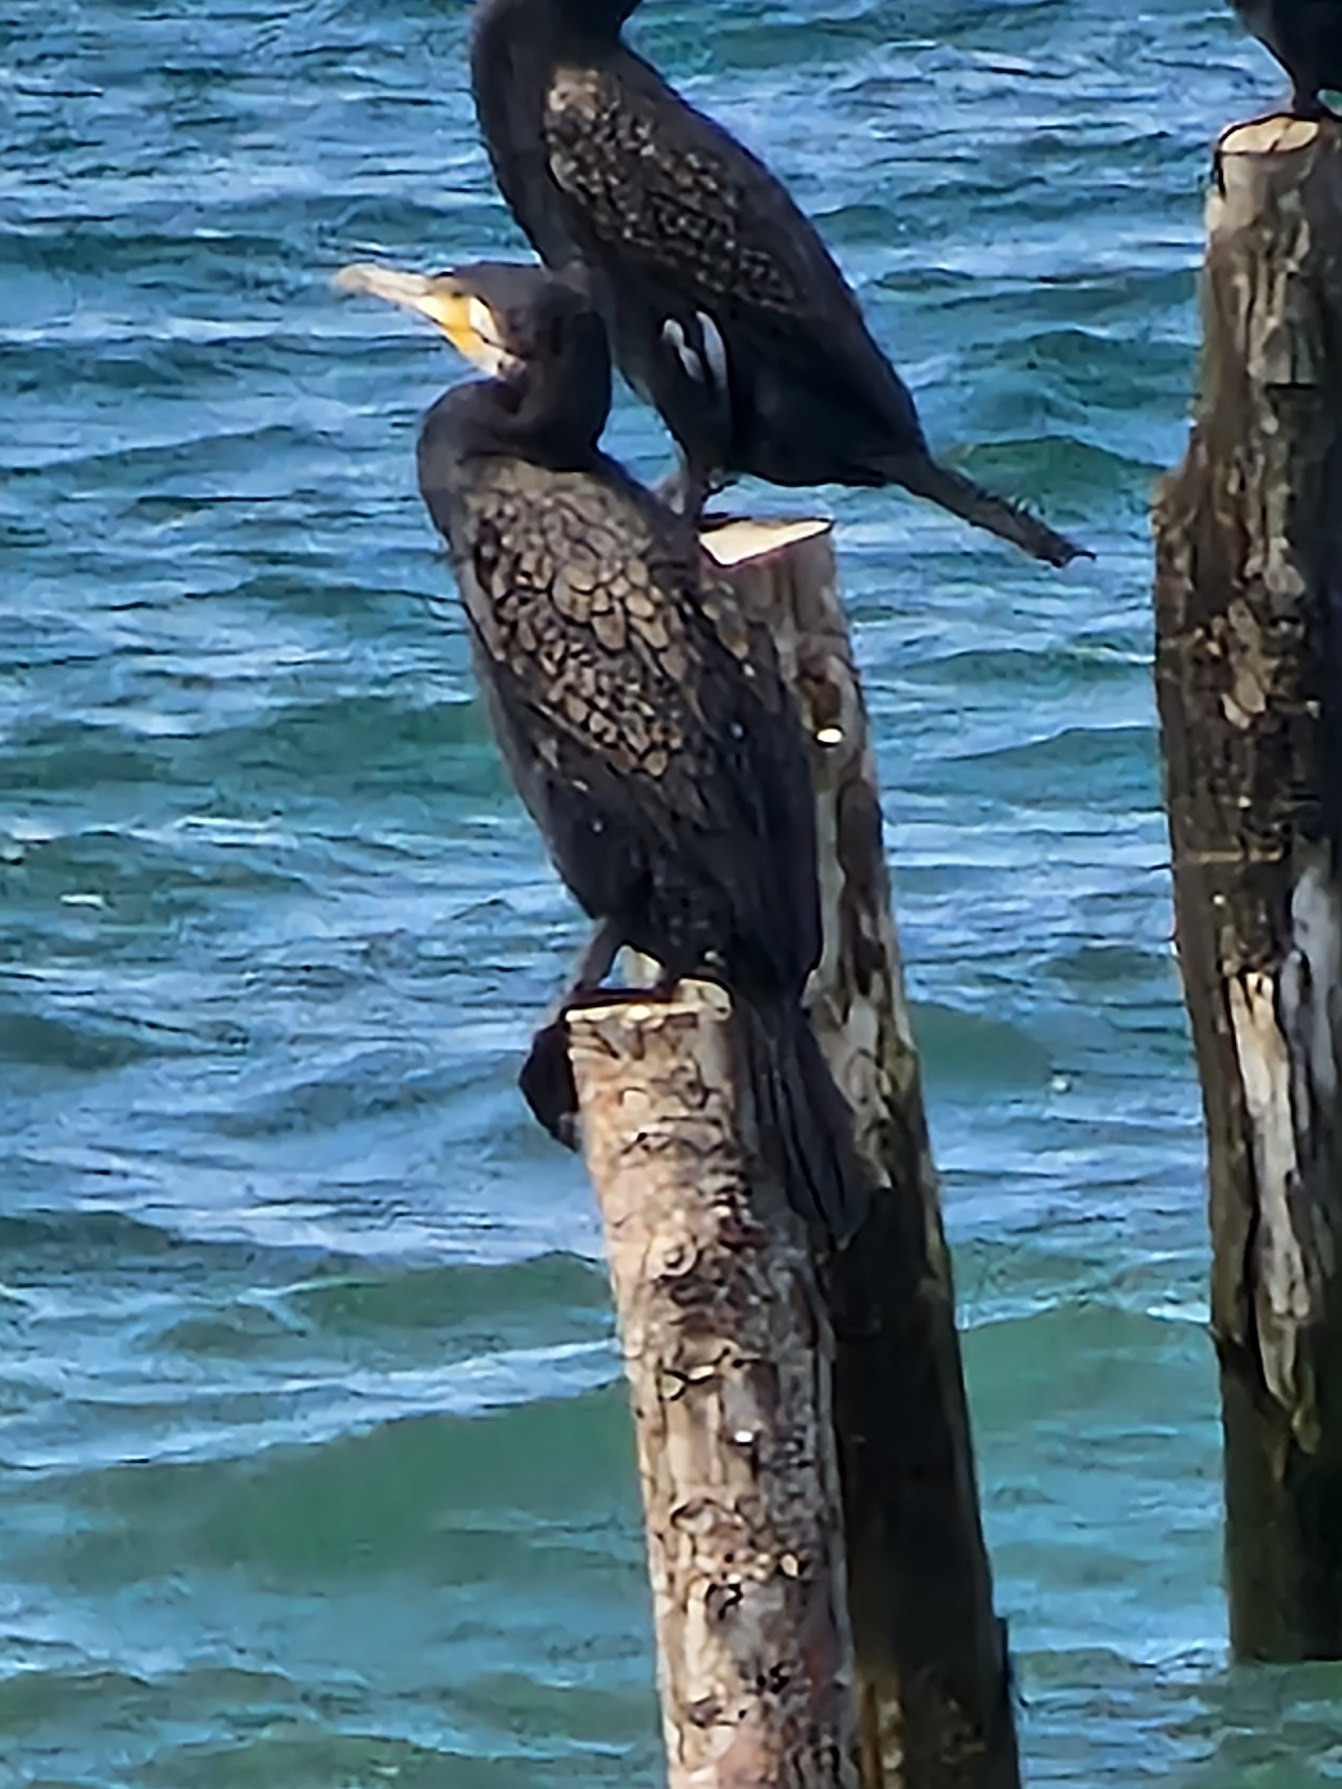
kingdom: Animalia
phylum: Chordata
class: Aves
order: Suliformes
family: Phalacrocoracidae
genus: Phalacrocorax
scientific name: Phalacrocorax carbo
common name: Skarv
